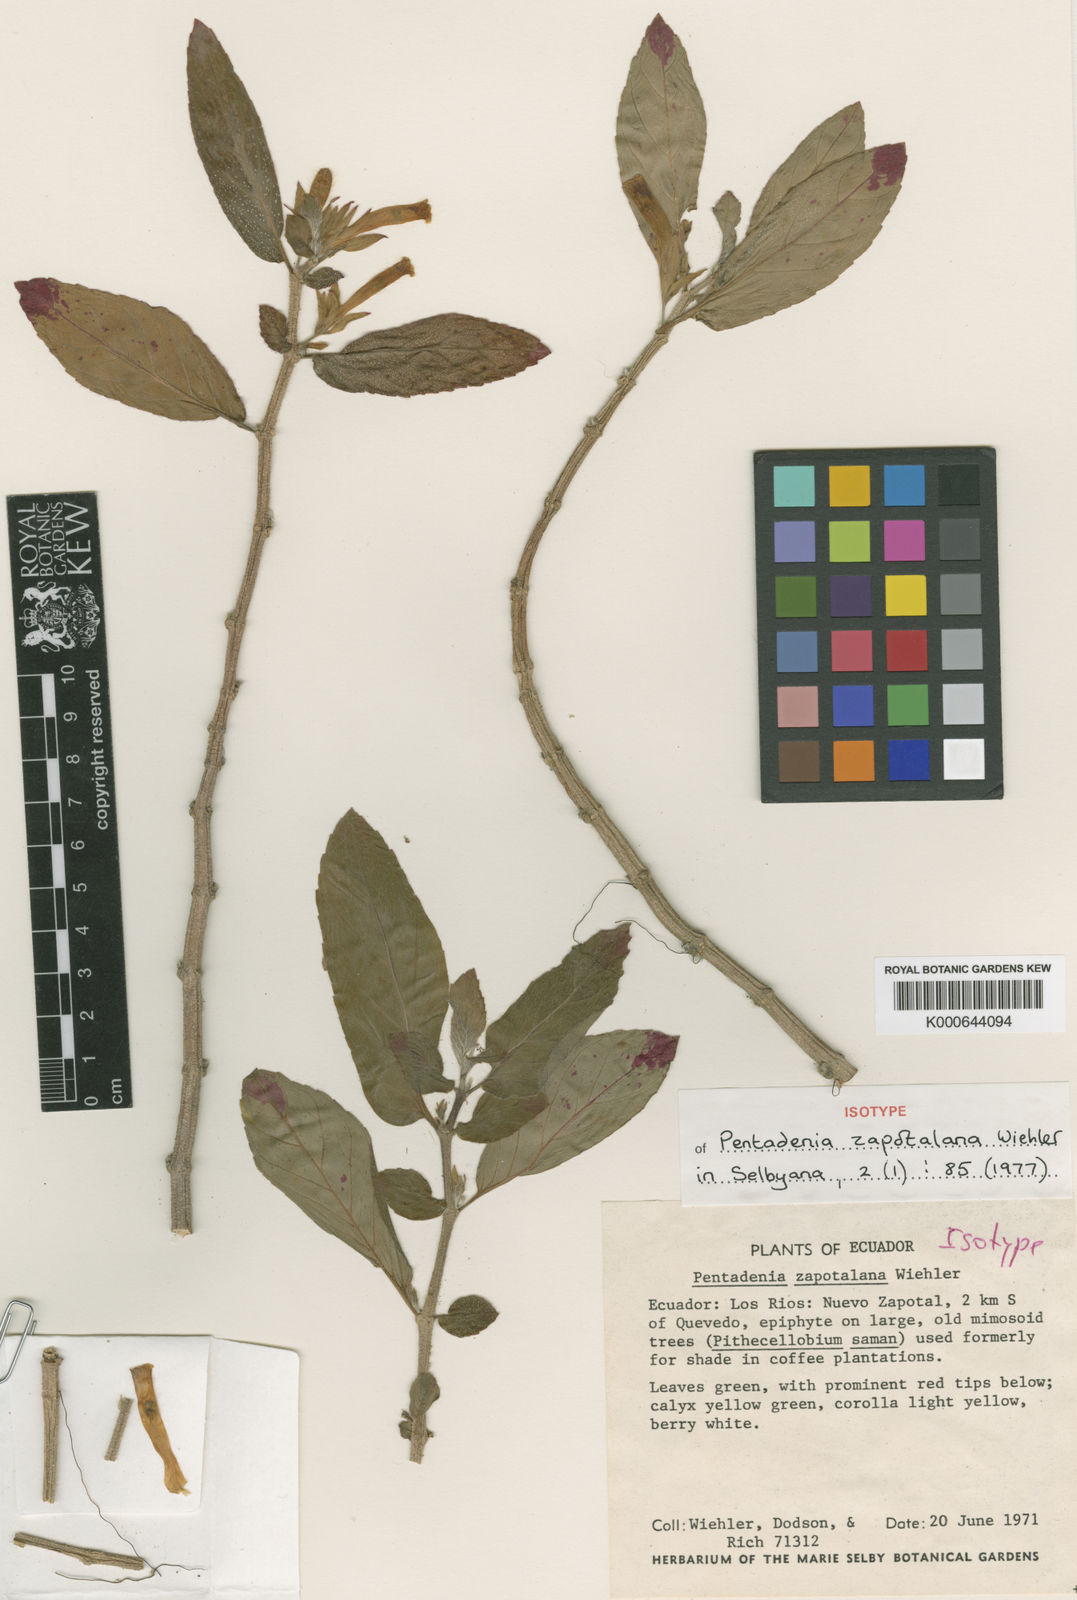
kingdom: Plantae
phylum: Tracheophyta
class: Magnoliopsida
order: Lamiales
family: Gesneriaceae
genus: Columnea
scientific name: Columnea spathulata
